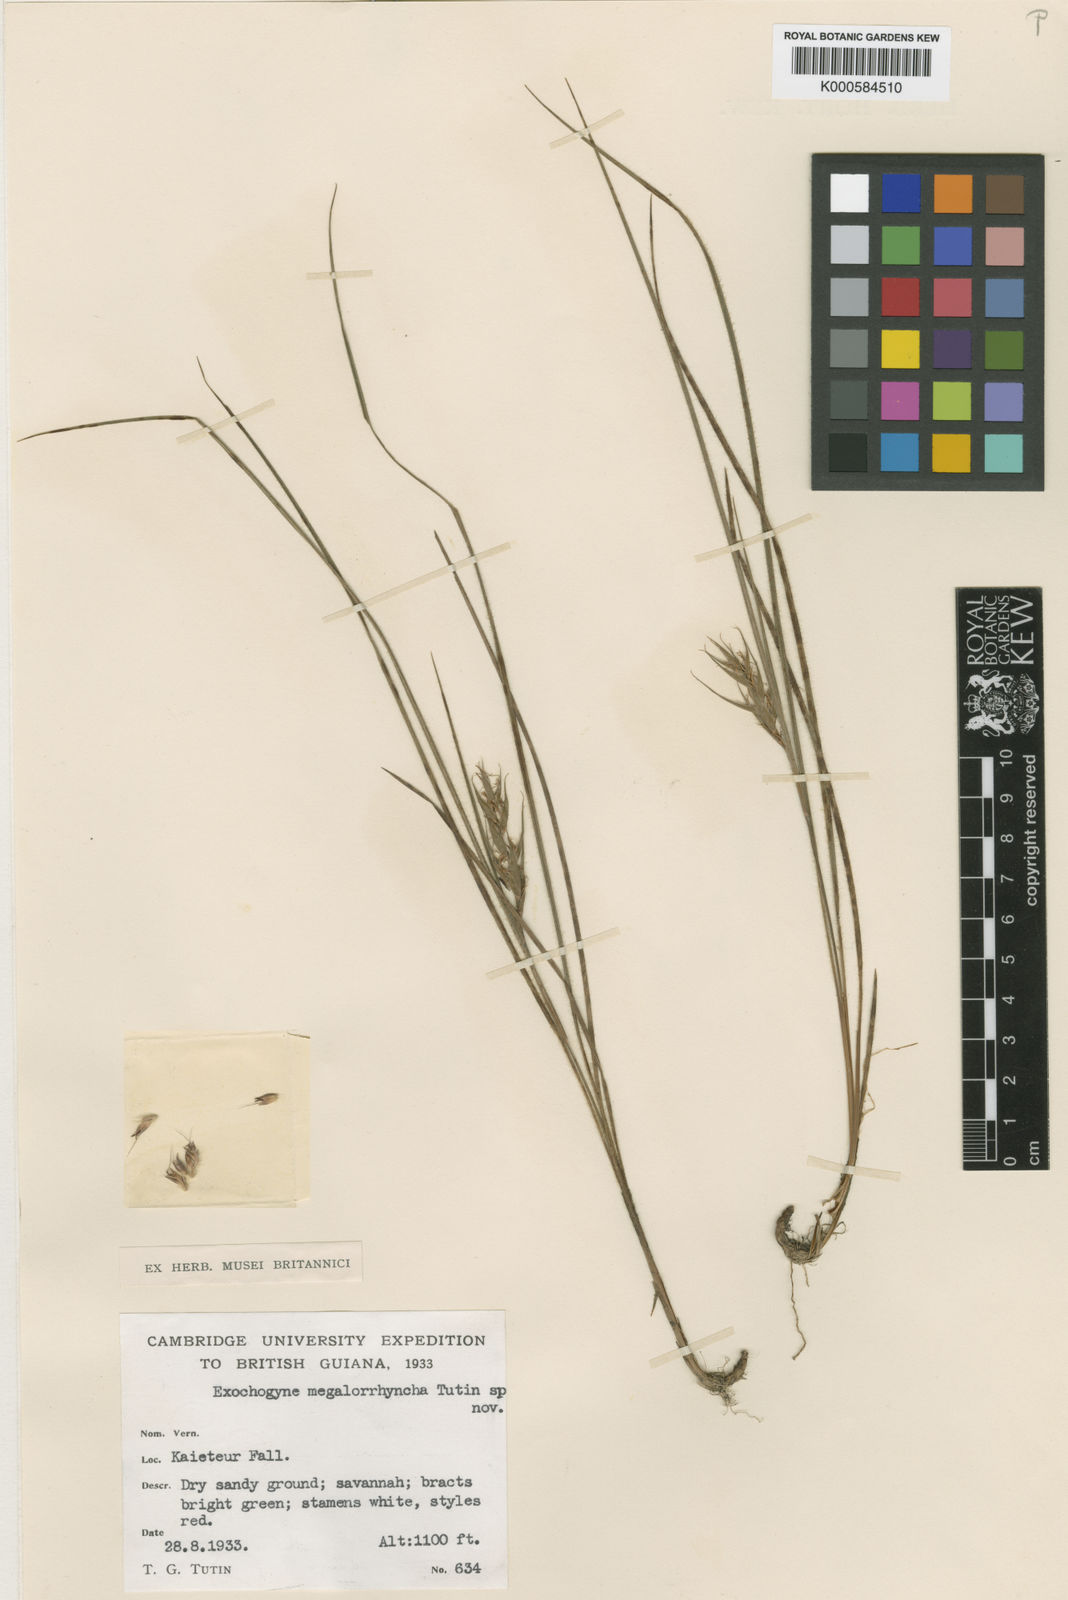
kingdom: Plantae
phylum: Tracheophyta
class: Liliopsida
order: Poales
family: Cyperaceae
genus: Exochogyne
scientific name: Exochogyne amazonica
